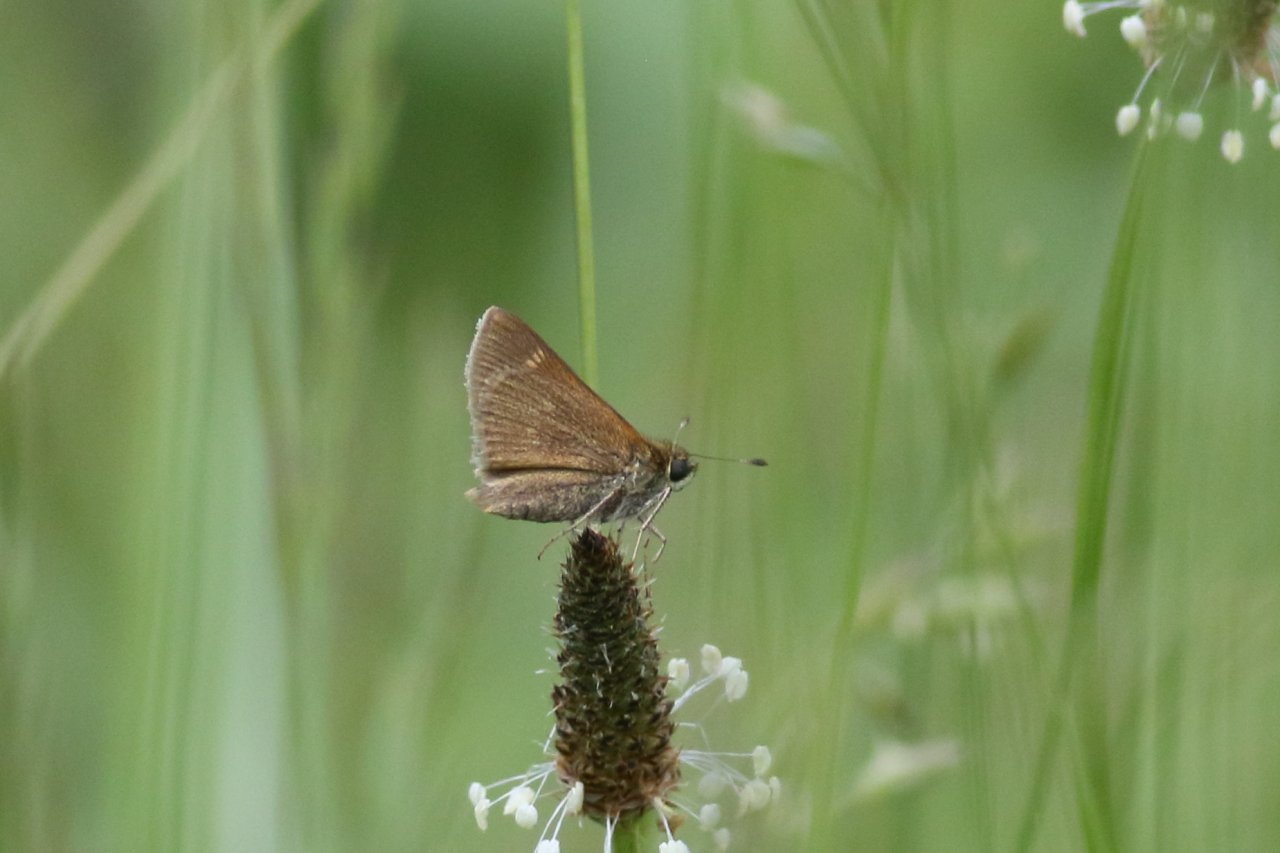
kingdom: Animalia
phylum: Arthropoda
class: Insecta
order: Lepidoptera
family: Hesperiidae
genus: Polites
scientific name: Polites themistocles
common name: Tawny-edged Skipper
